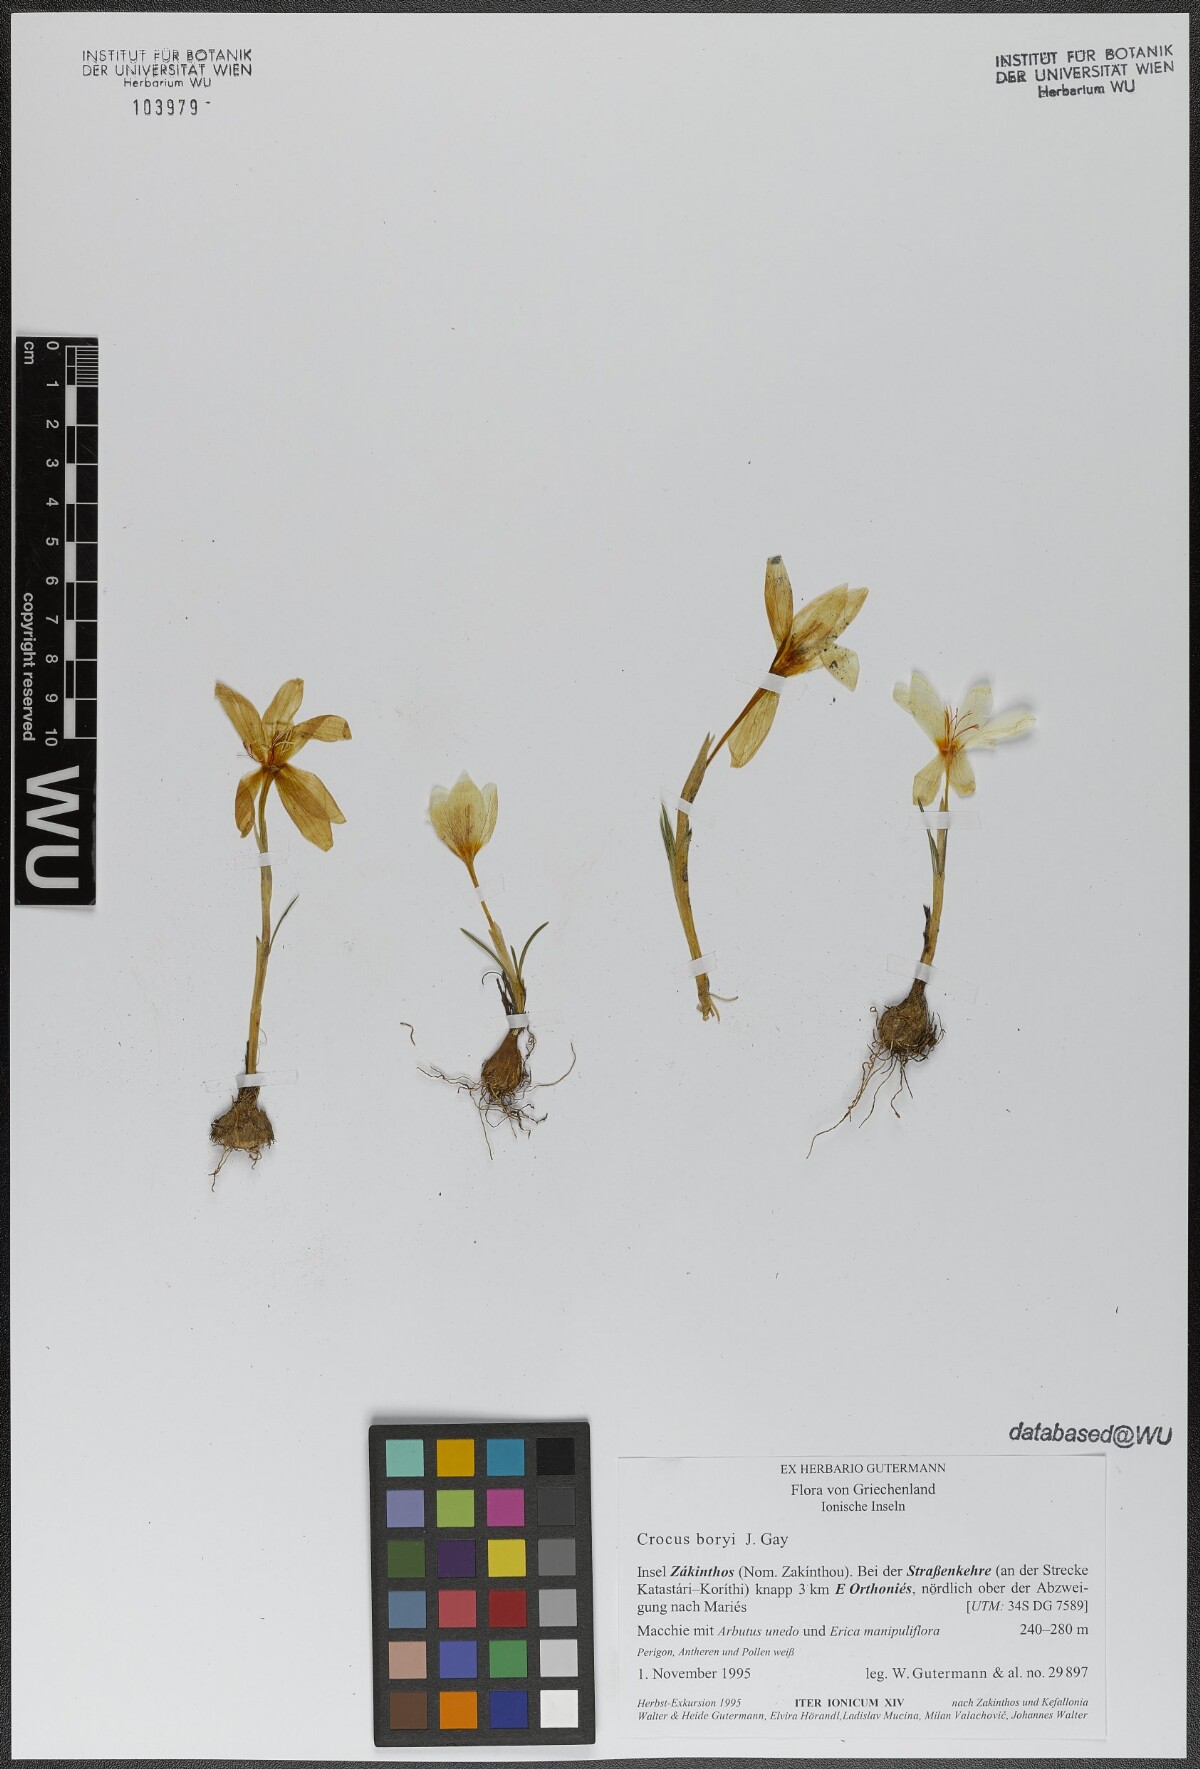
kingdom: Plantae
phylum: Tracheophyta
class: Liliopsida
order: Asparagales
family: Iridaceae
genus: Crocus
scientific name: Crocus boryi
